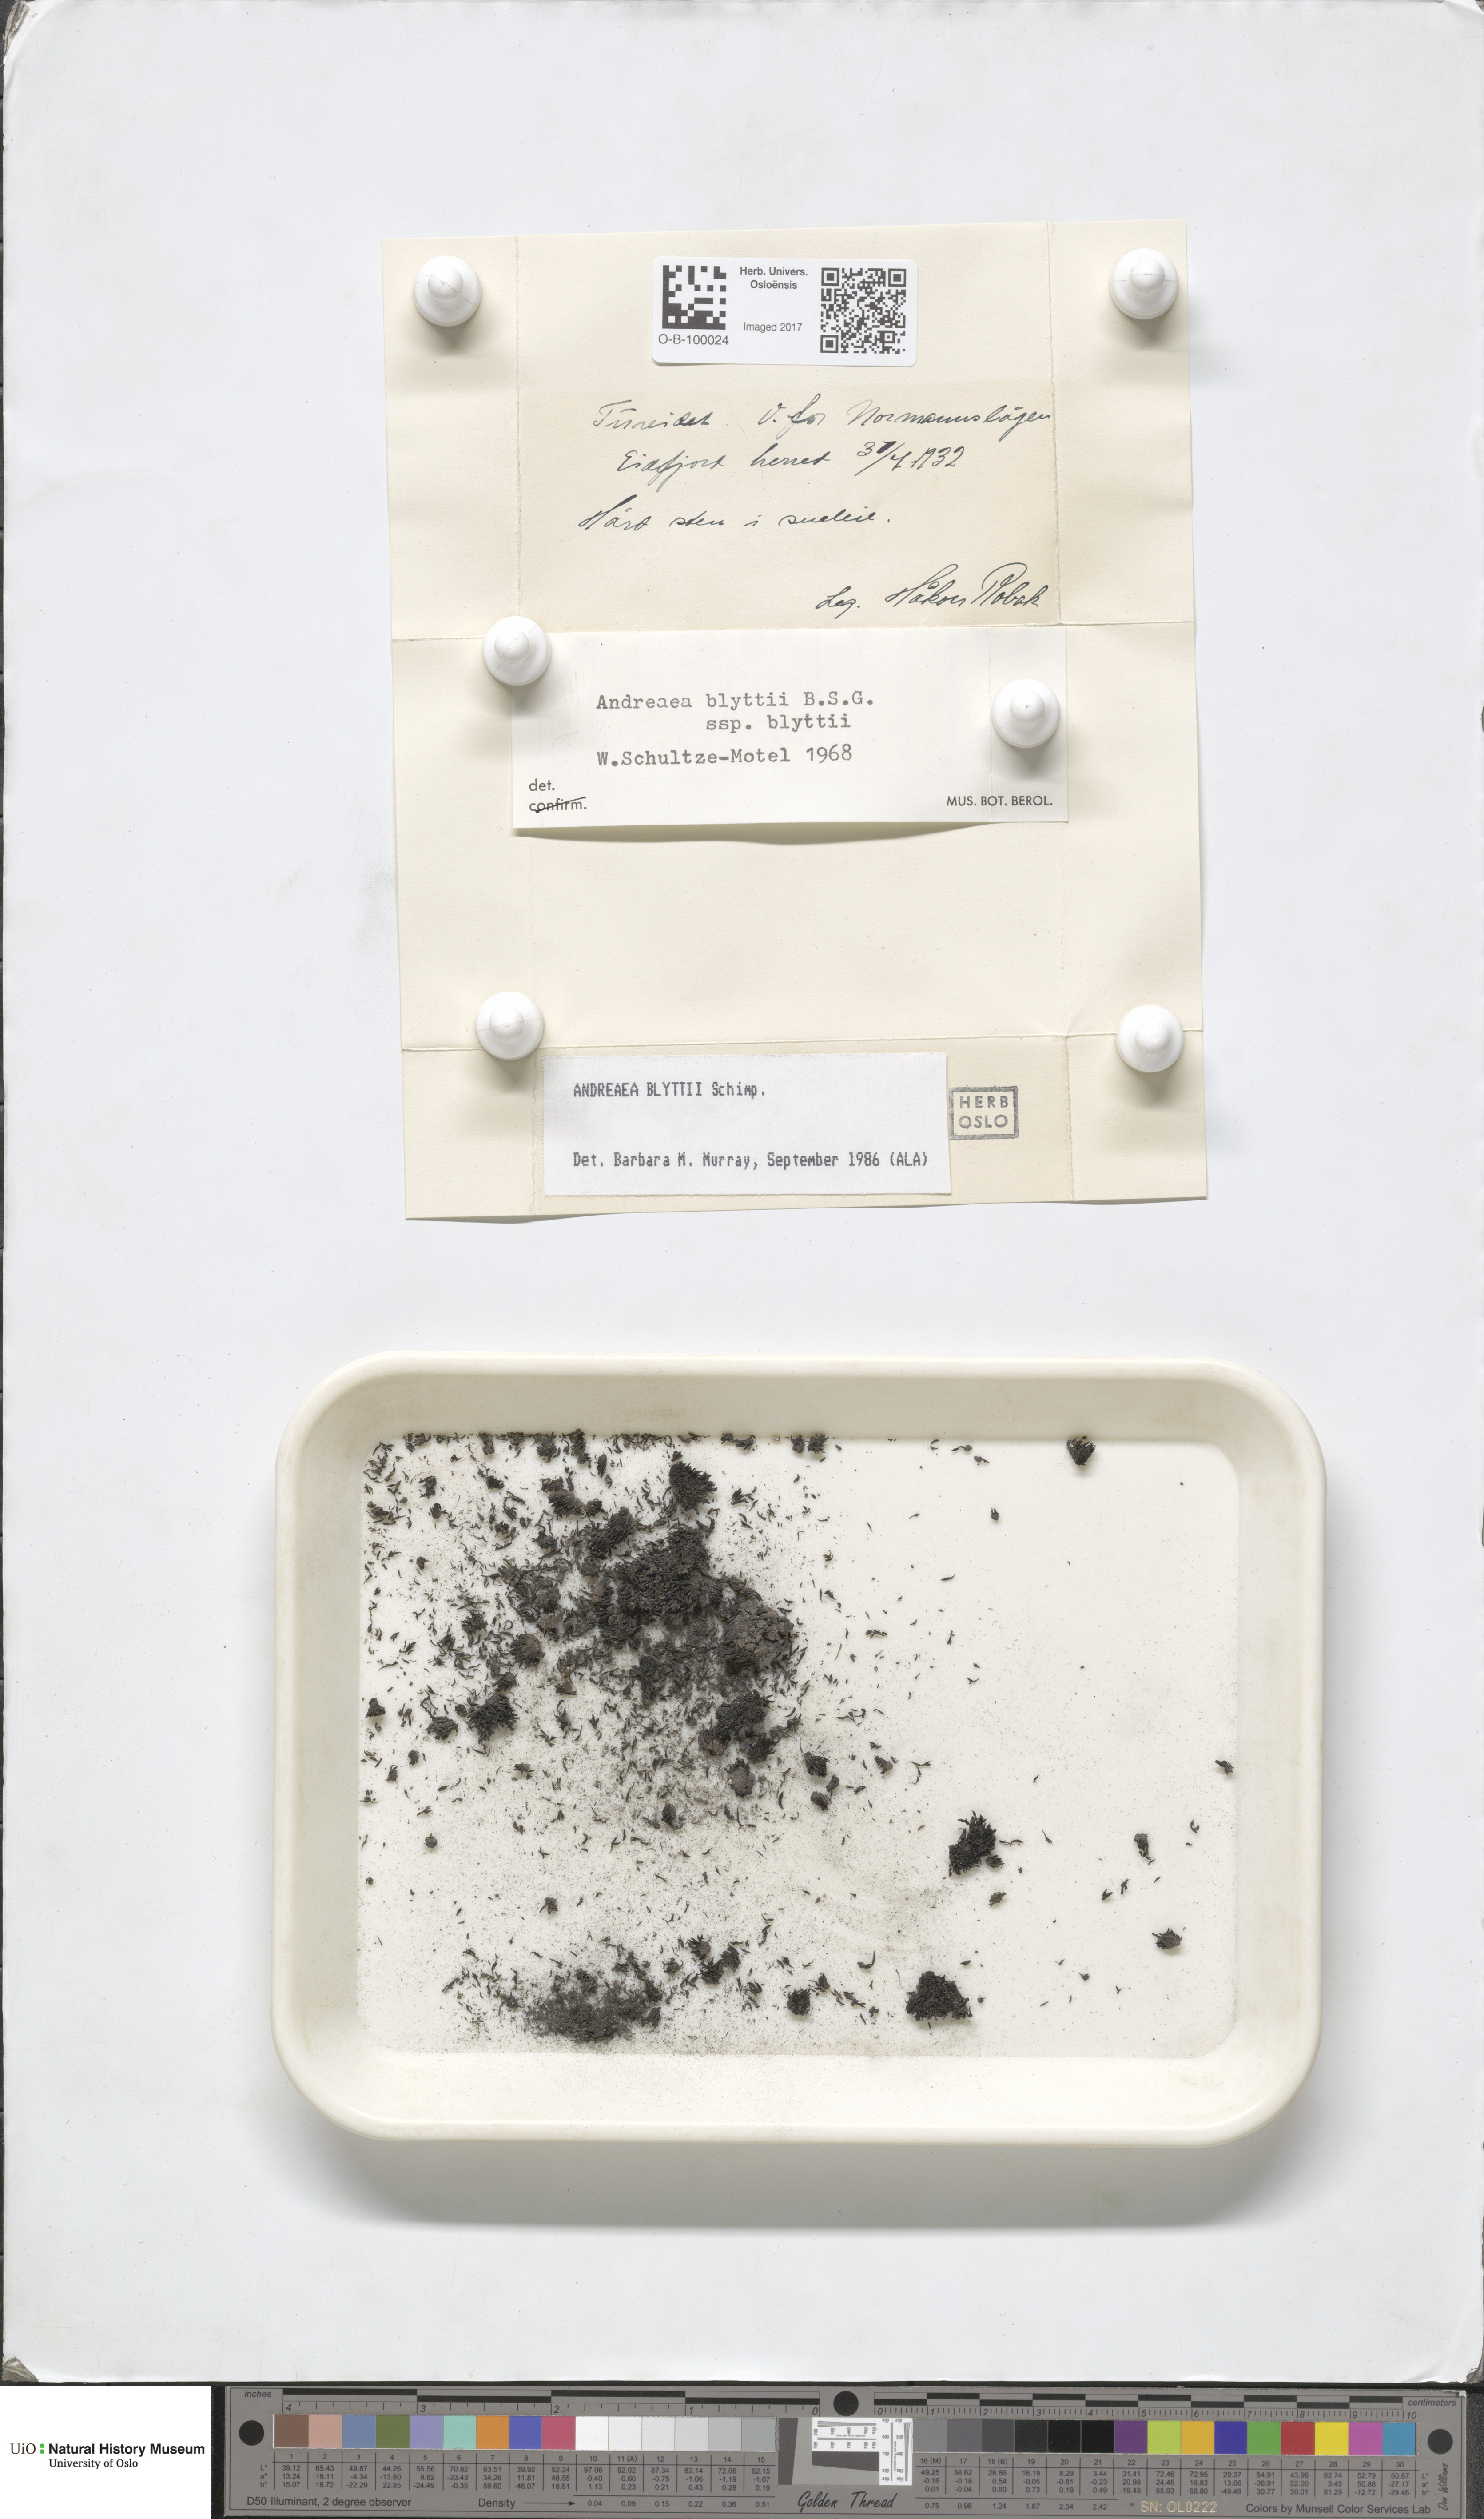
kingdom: Plantae
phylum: Bryophyta
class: Andreaeopsida
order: Andreaeales
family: Andreaeaceae
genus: Andreaea
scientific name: Andreaea hookeri
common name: Alpine rock-moss
